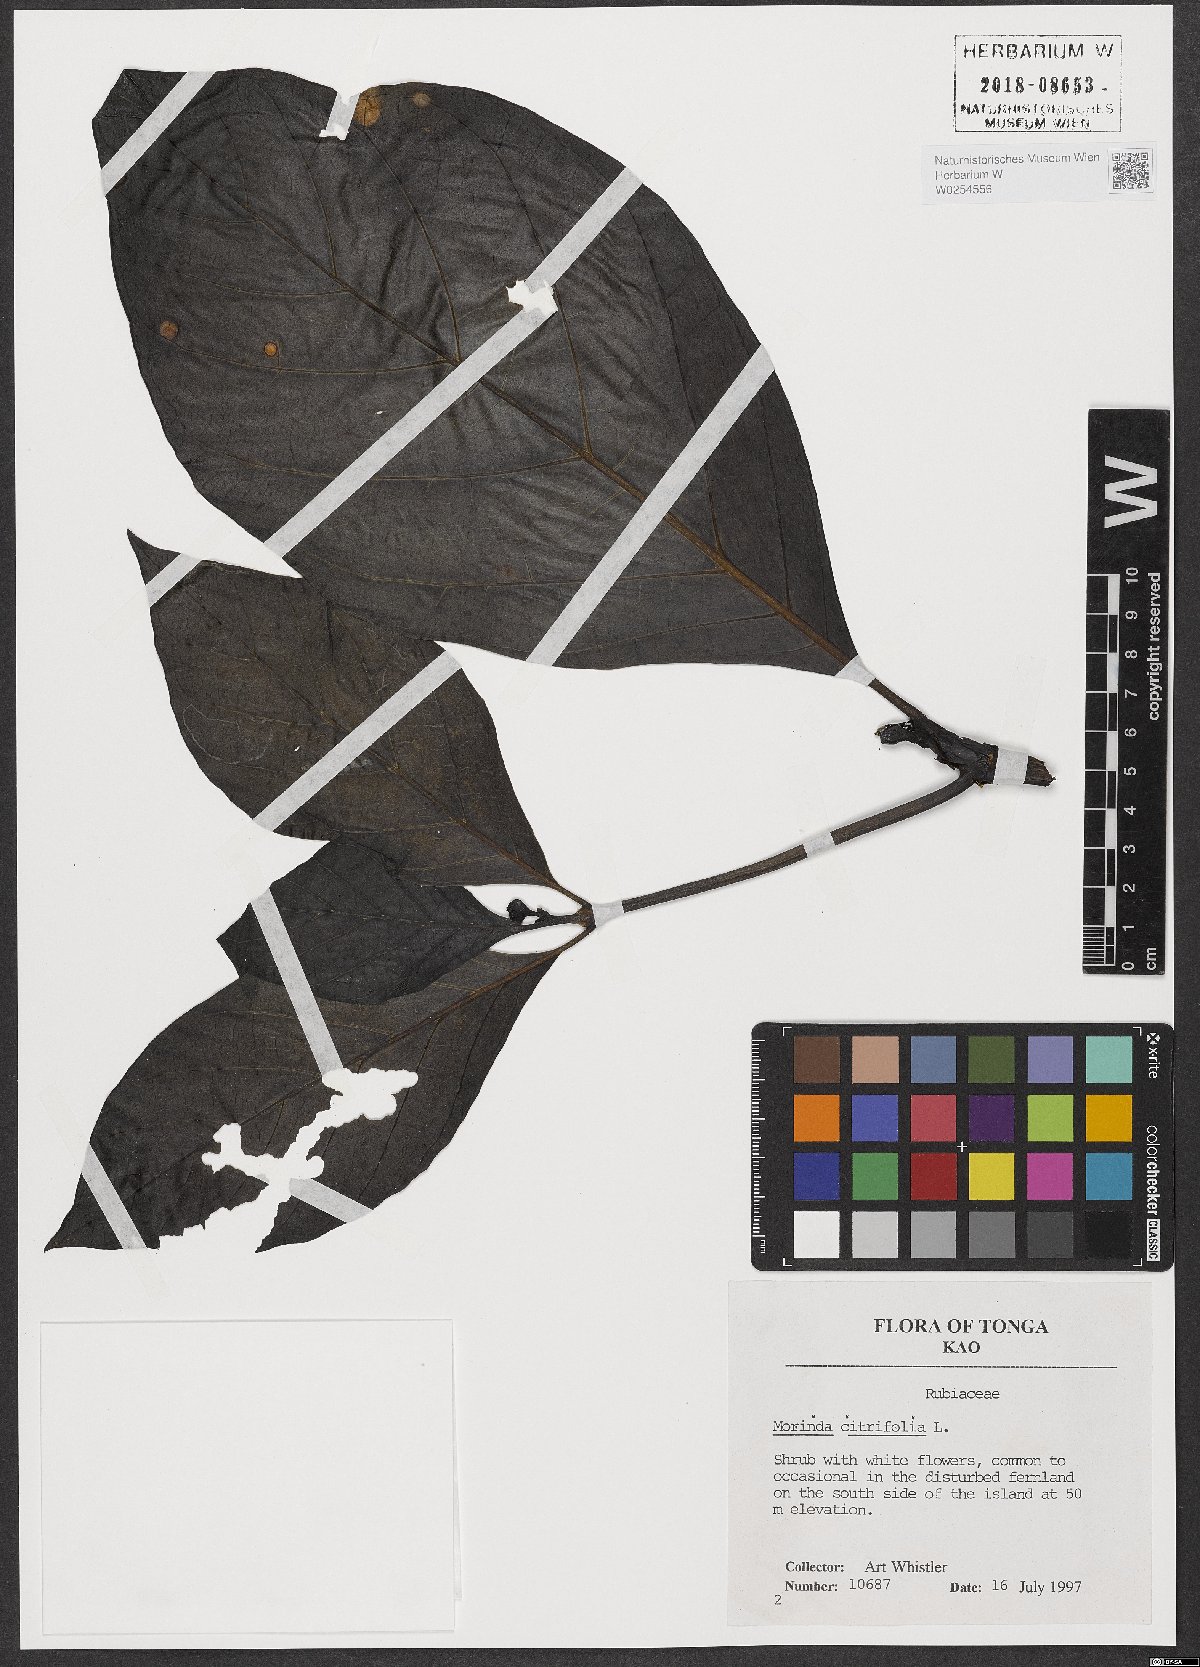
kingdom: Plantae
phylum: Tracheophyta
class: Magnoliopsida
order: Gentianales
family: Rubiaceae
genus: Morinda
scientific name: Morinda citrifolia
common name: Indian-mulberry
